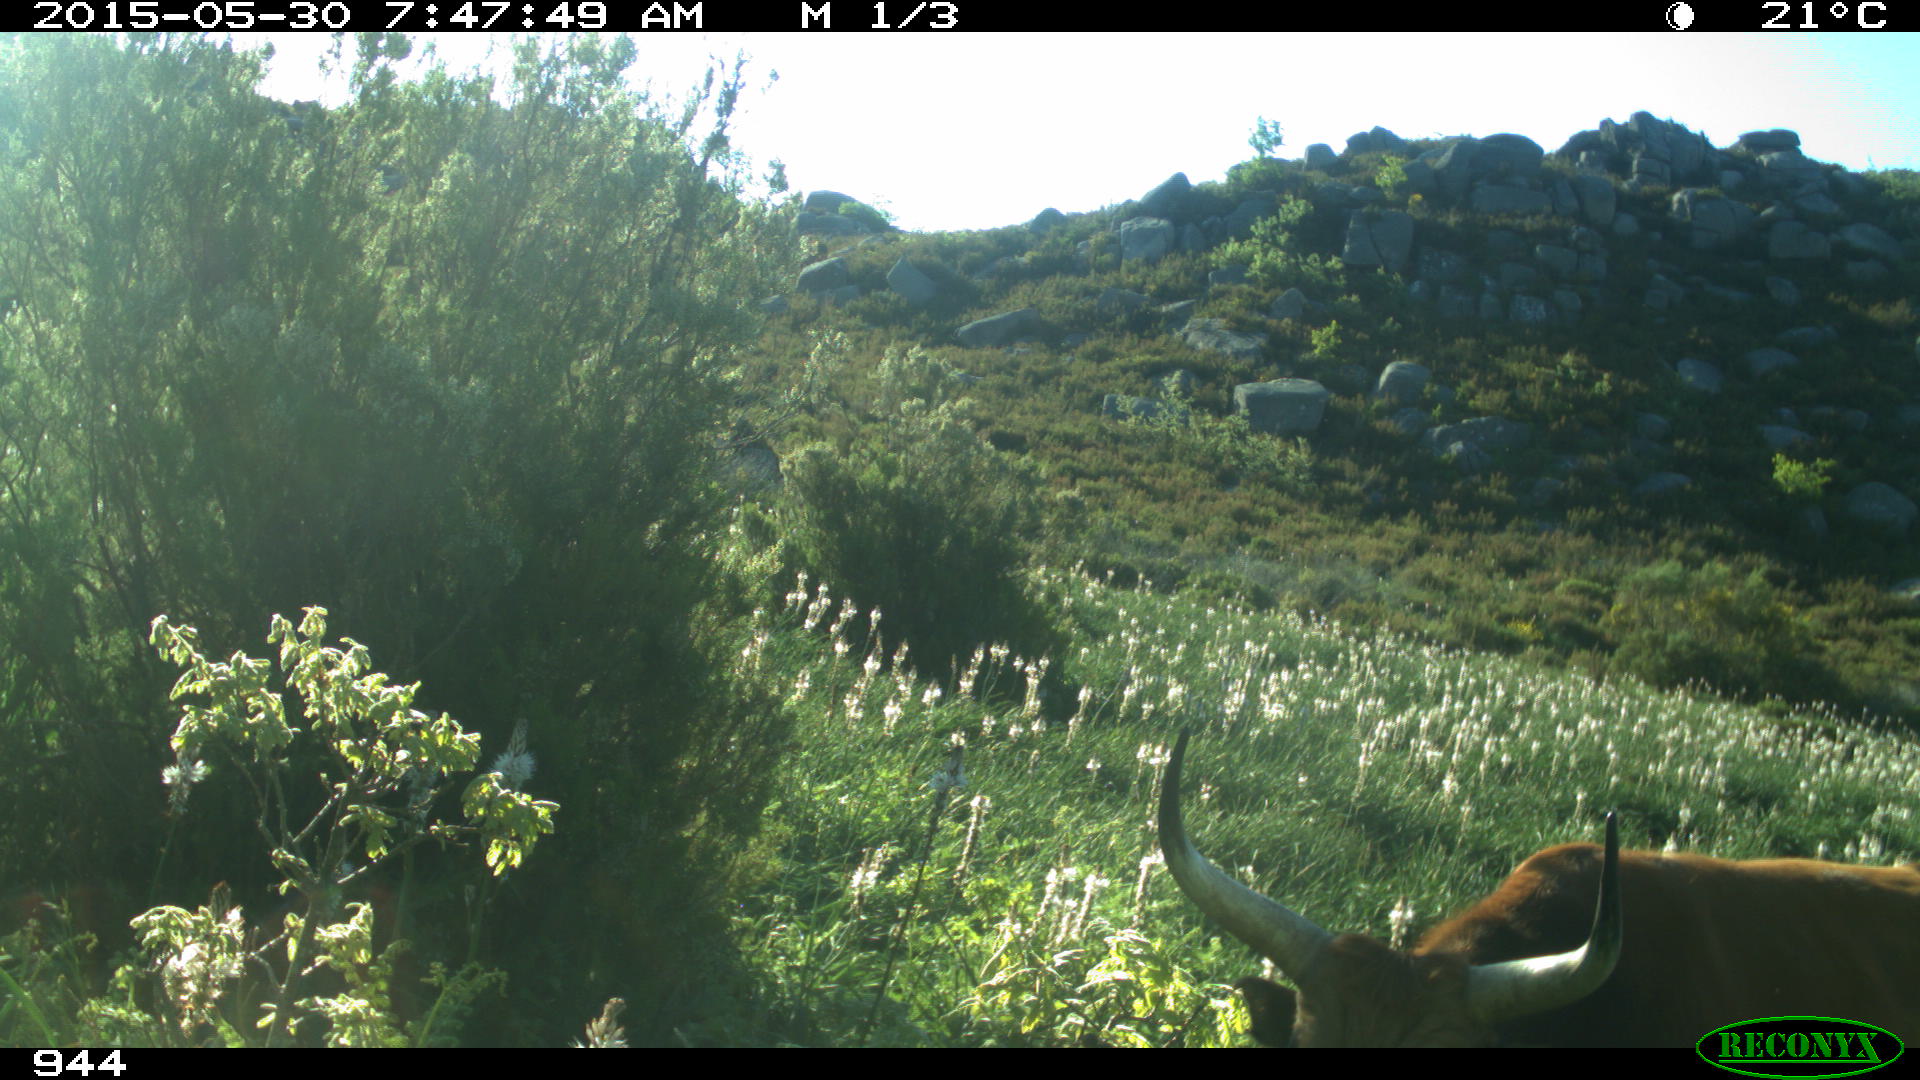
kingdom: Animalia
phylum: Chordata
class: Mammalia
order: Artiodactyla
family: Bovidae
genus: Bos
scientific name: Bos taurus
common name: Domesticated cattle
